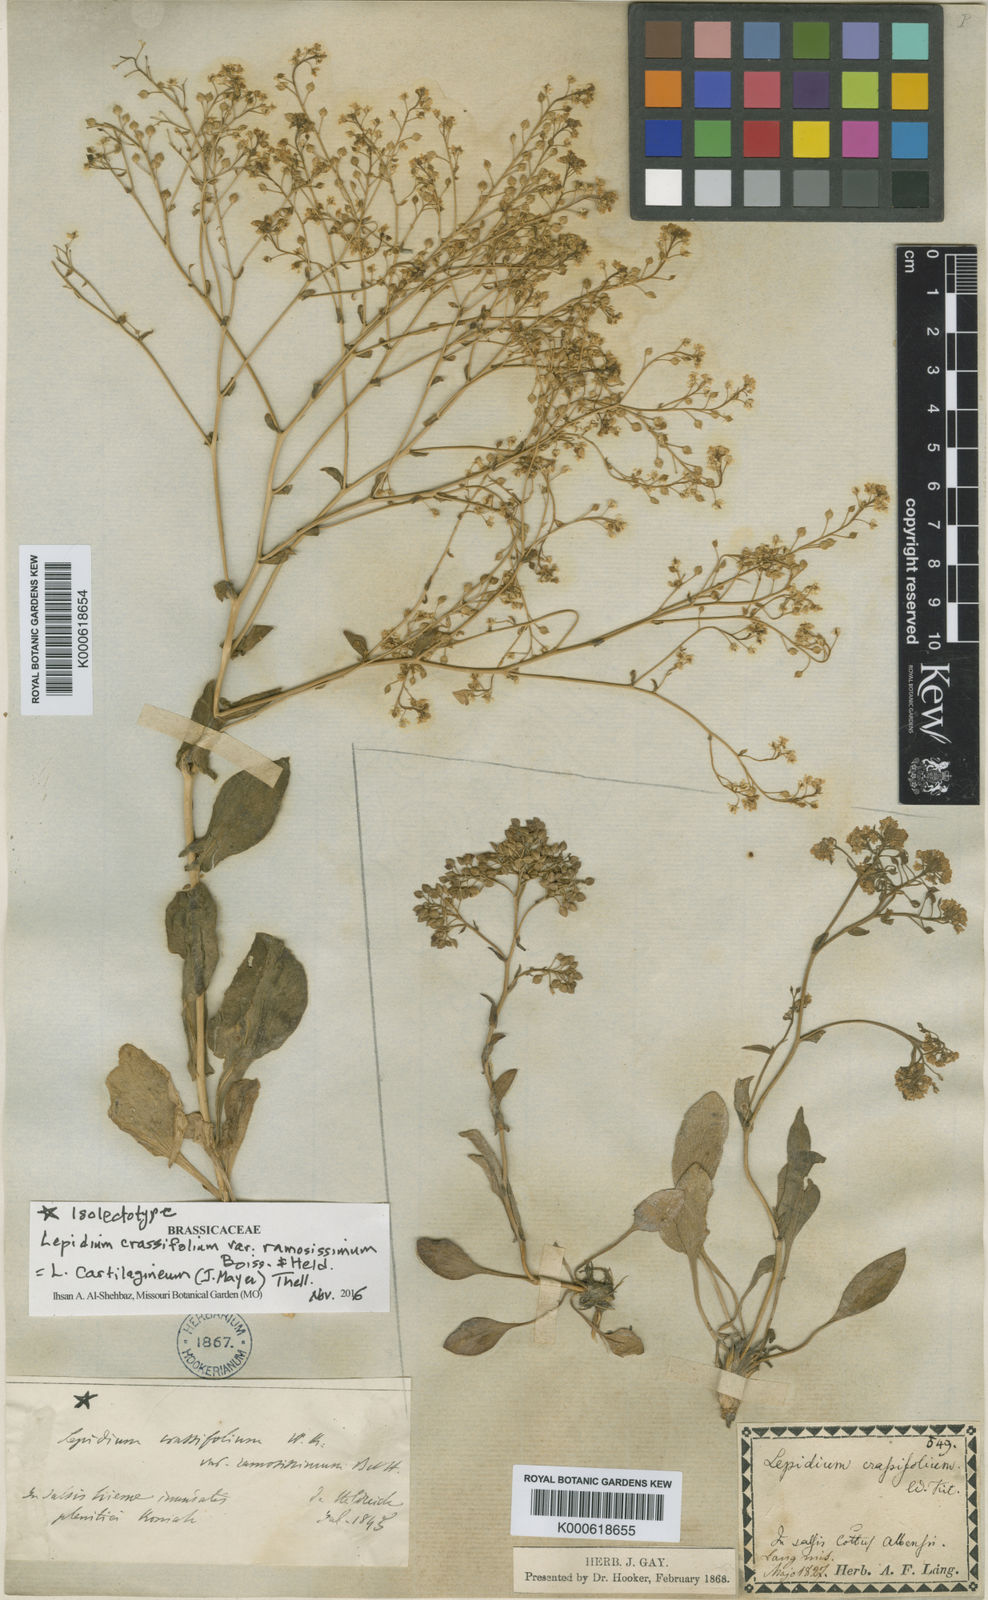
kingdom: Plantae
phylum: Tracheophyta
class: Magnoliopsida
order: Brassicales
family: Brassicaceae
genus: Lepidium
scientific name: Lepidium cartilagineum
